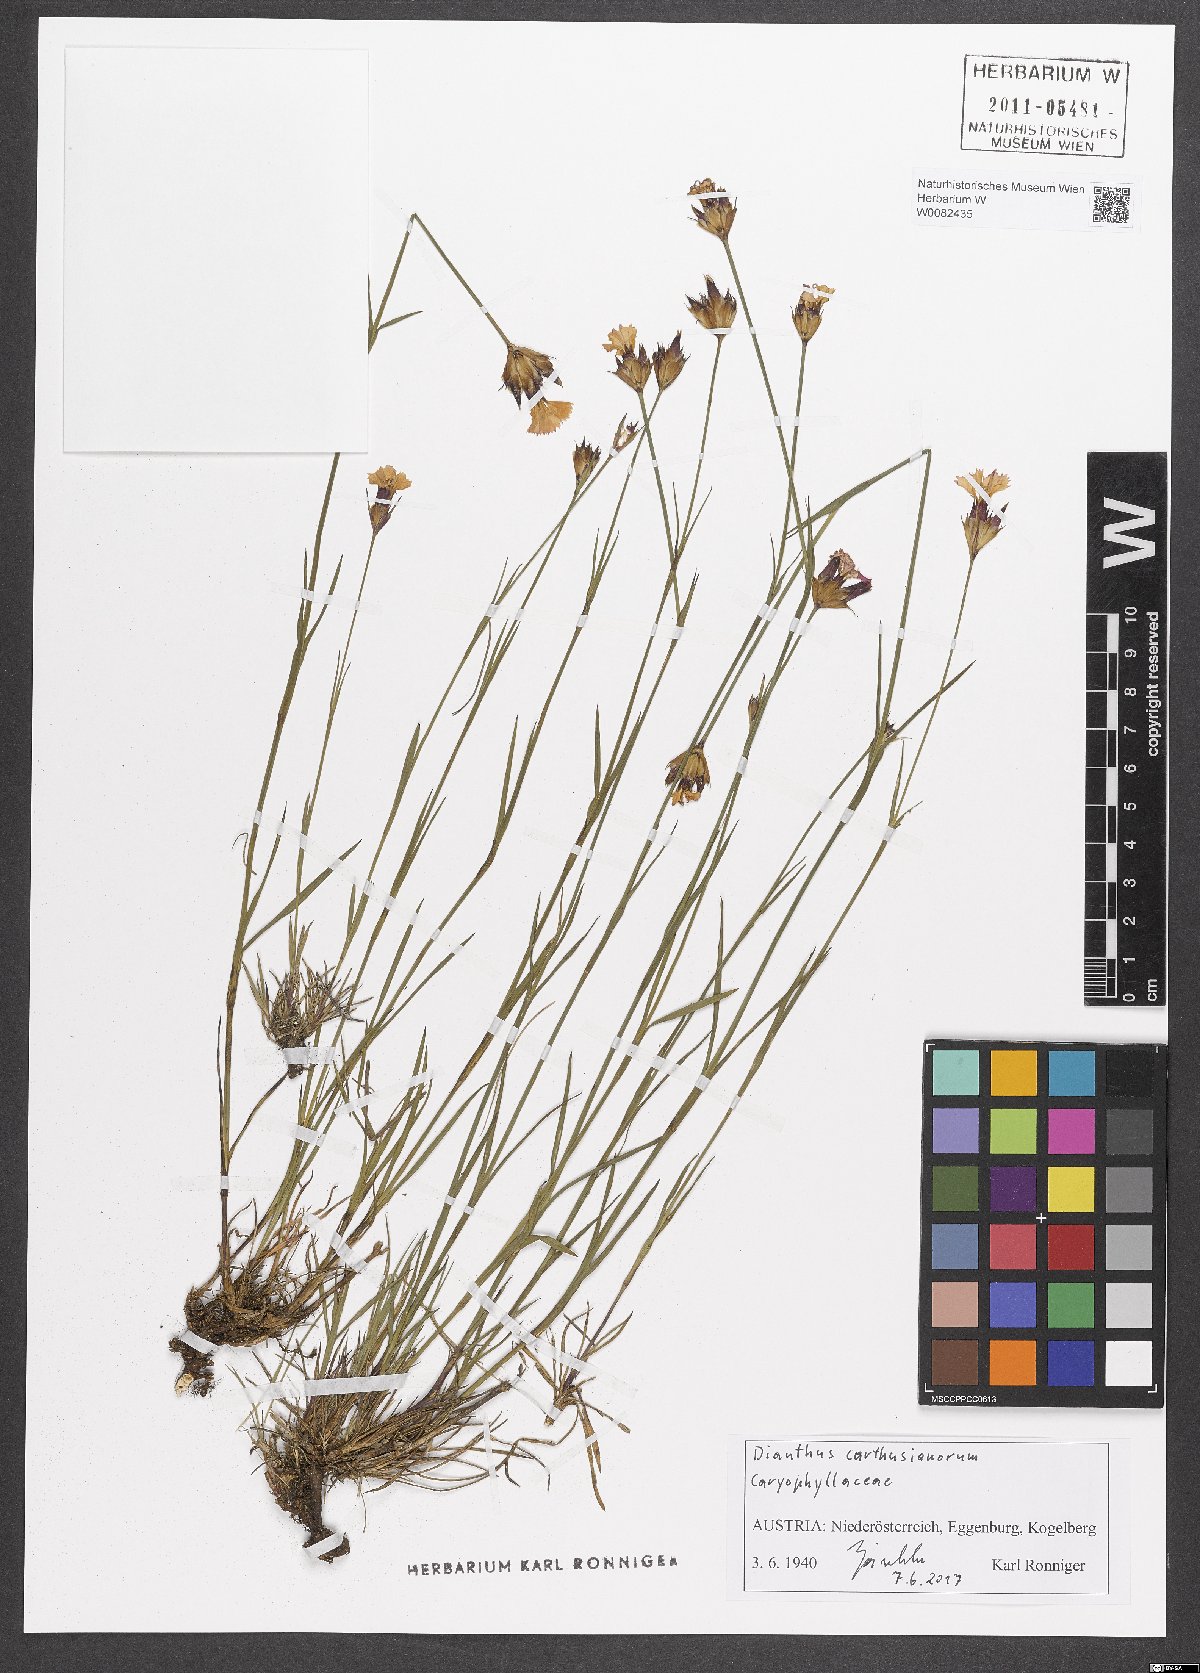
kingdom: Plantae
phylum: Tracheophyta
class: Magnoliopsida
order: Caryophyllales
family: Caryophyllaceae
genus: Dianthus
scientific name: Dianthus carthusianorum
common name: Carthusian pink
